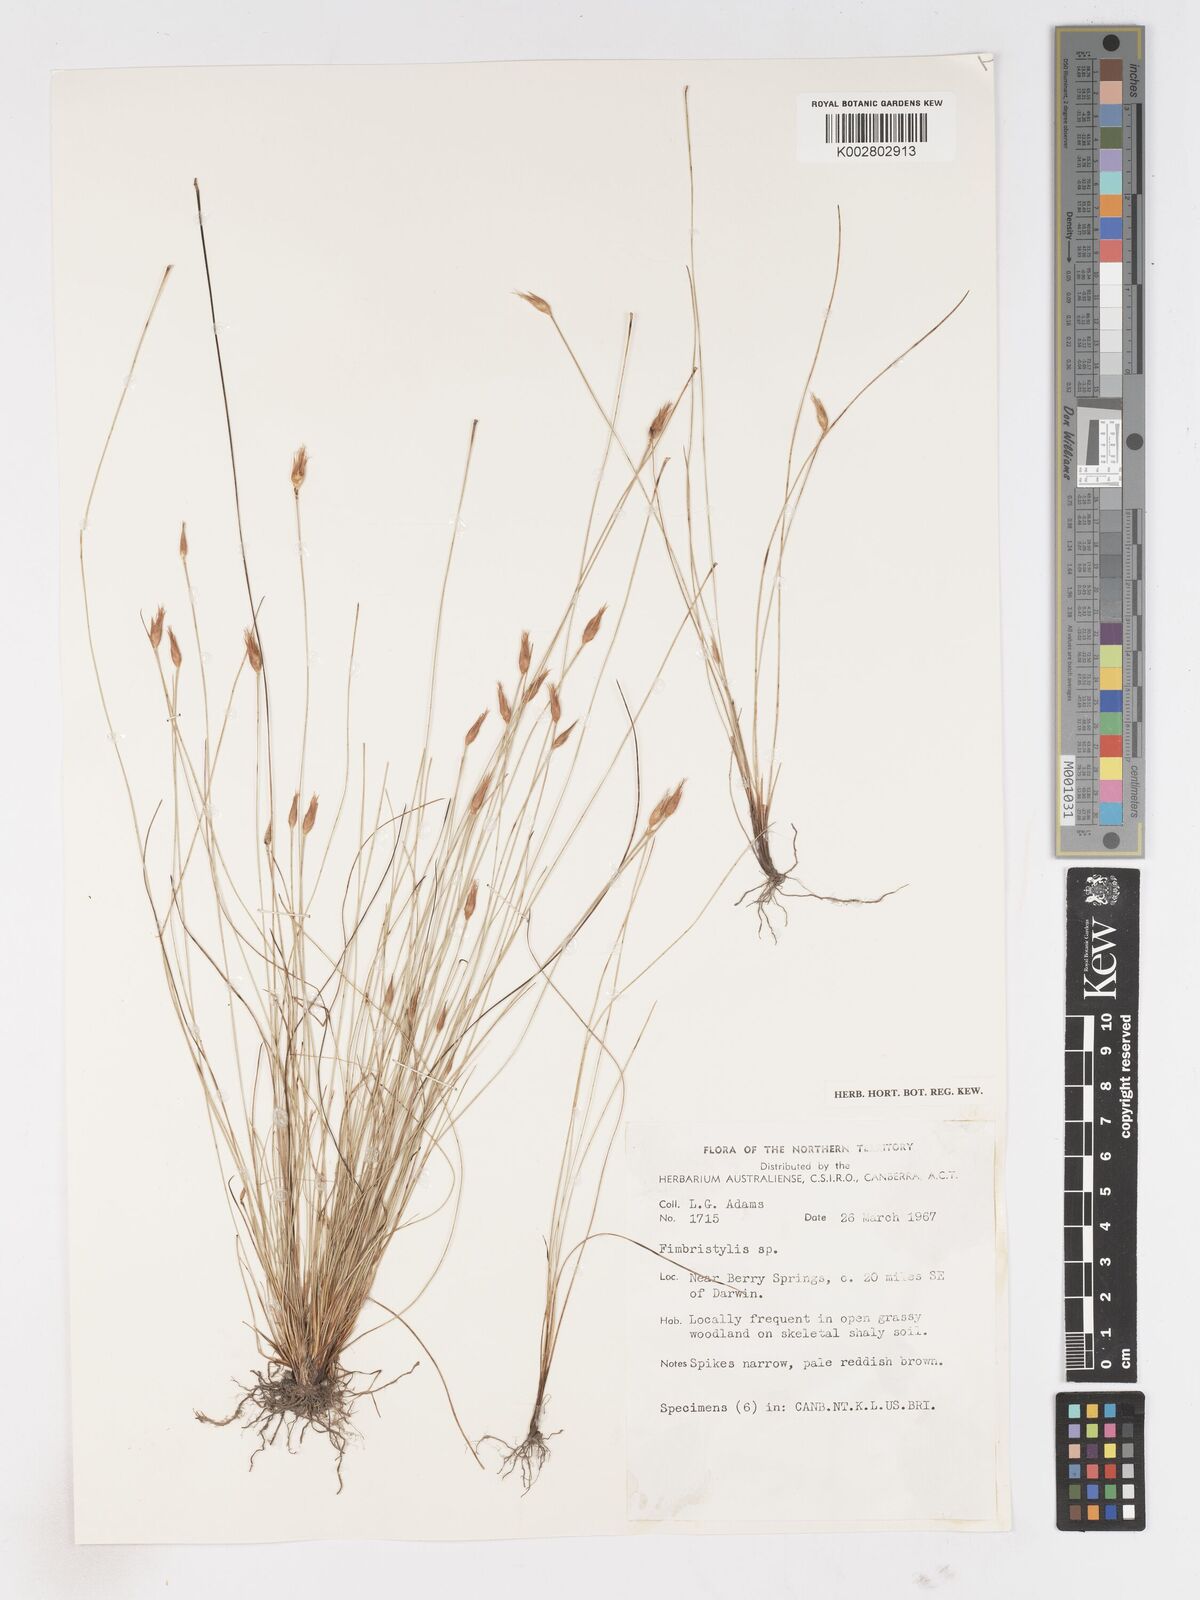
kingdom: Plantae
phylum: Tracheophyta
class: Liliopsida
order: Poales
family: Cyperaceae
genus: Fimbristylis
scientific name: Fimbristylis
